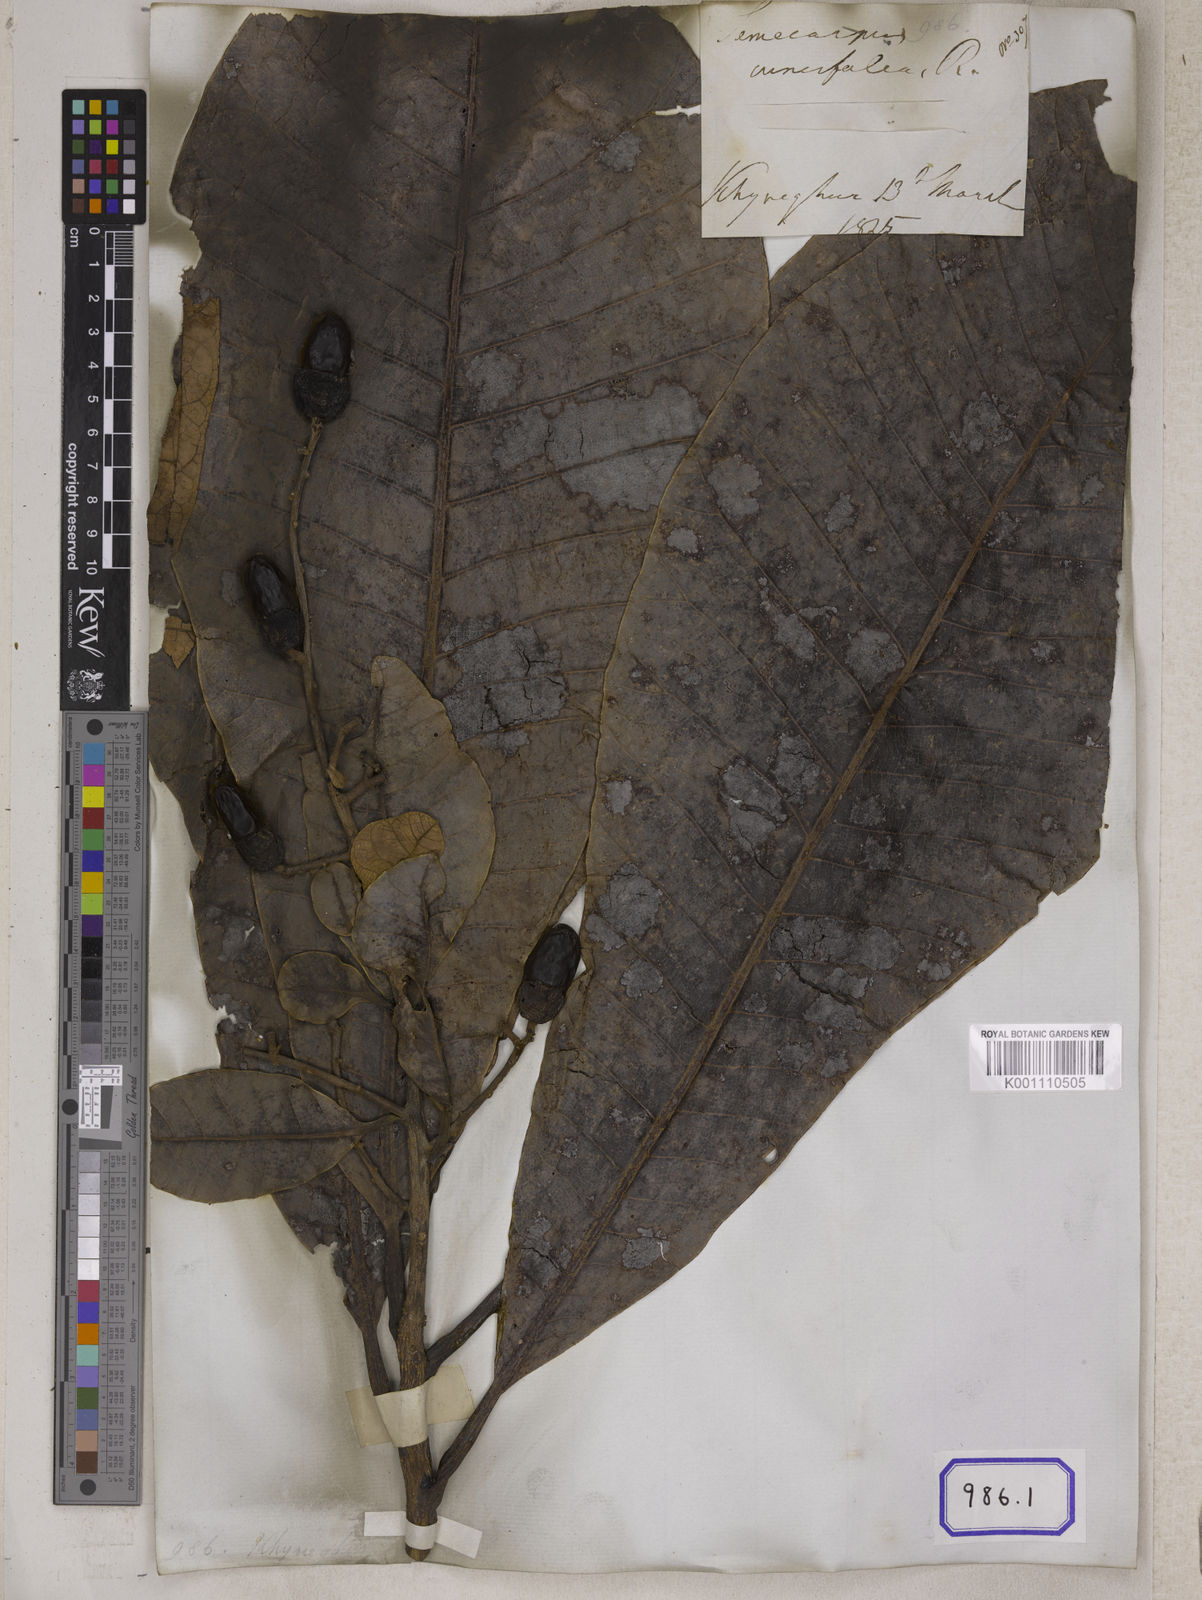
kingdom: Plantae
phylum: Tracheophyta
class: Magnoliopsida
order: Sapindales
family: Anacardiaceae
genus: Semecarpus
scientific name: Semecarpus anacardium
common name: Marking nut-tree
